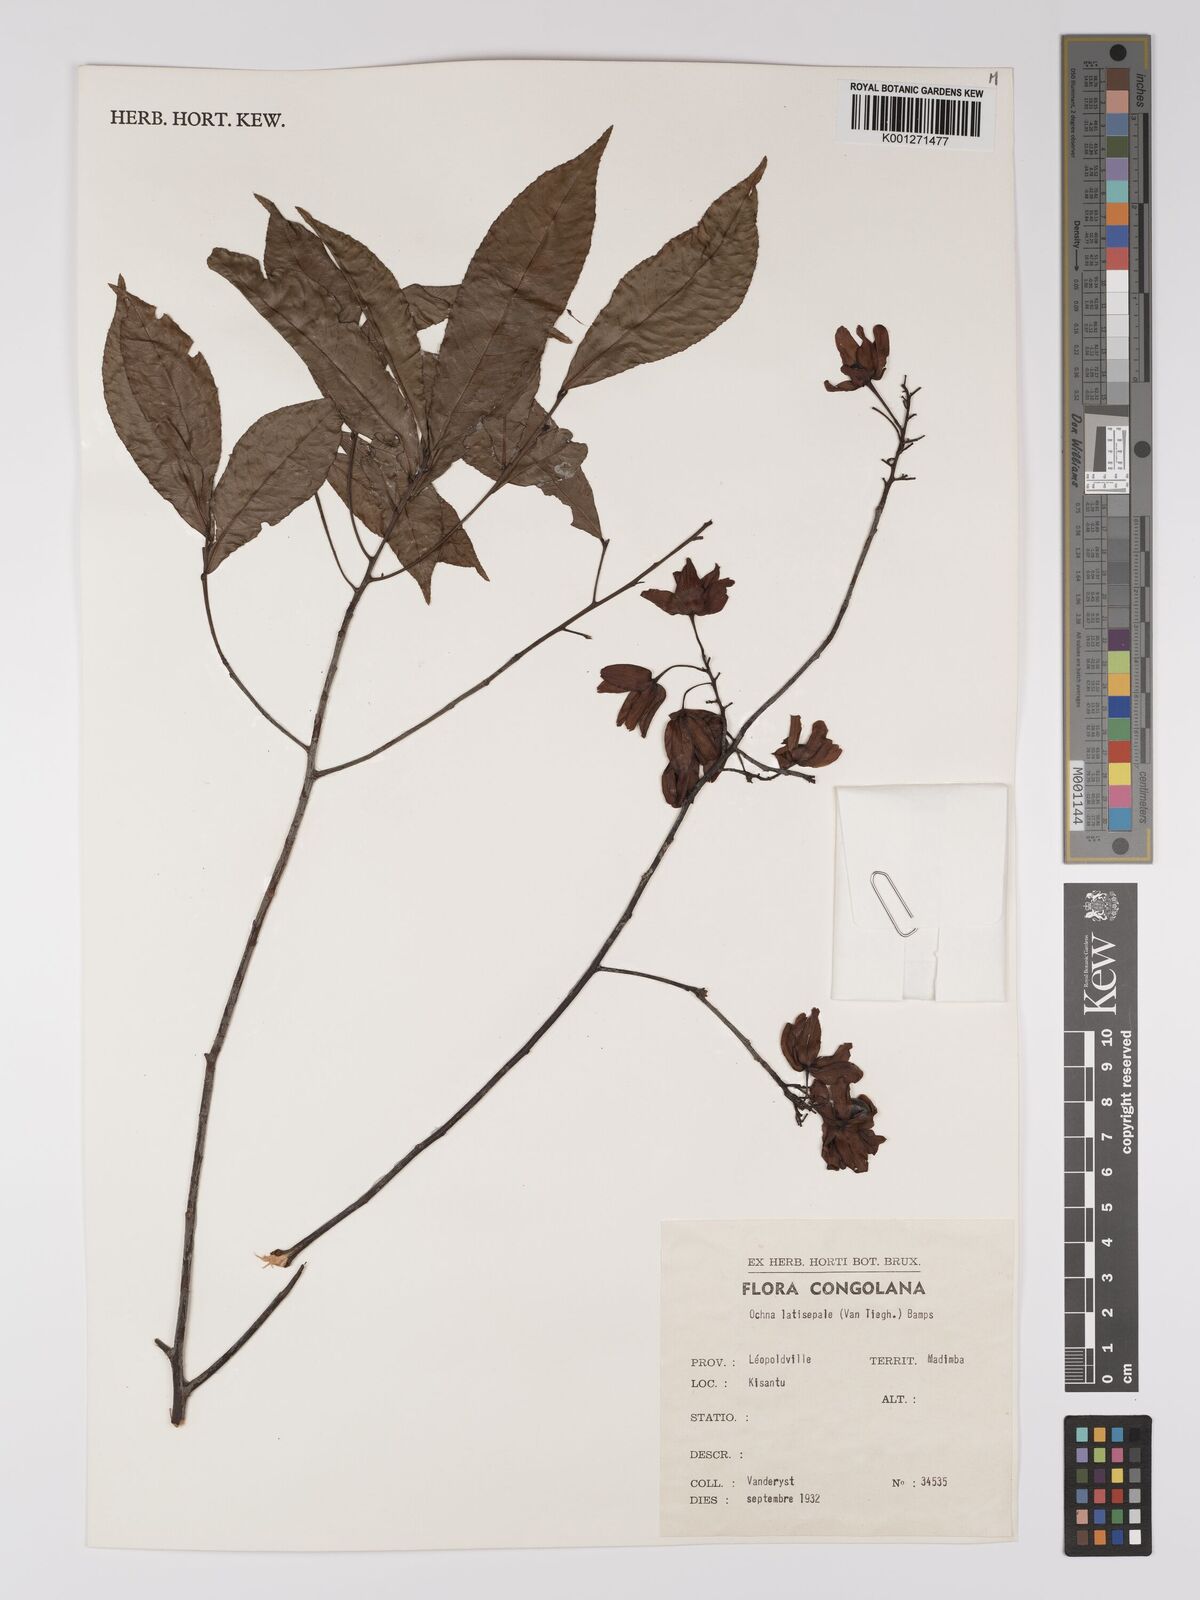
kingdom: Plantae
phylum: Tracheophyta
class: Magnoliopsida
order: Malpighiales
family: Ochnaceae
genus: Ochna
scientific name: Ochna latisepala
